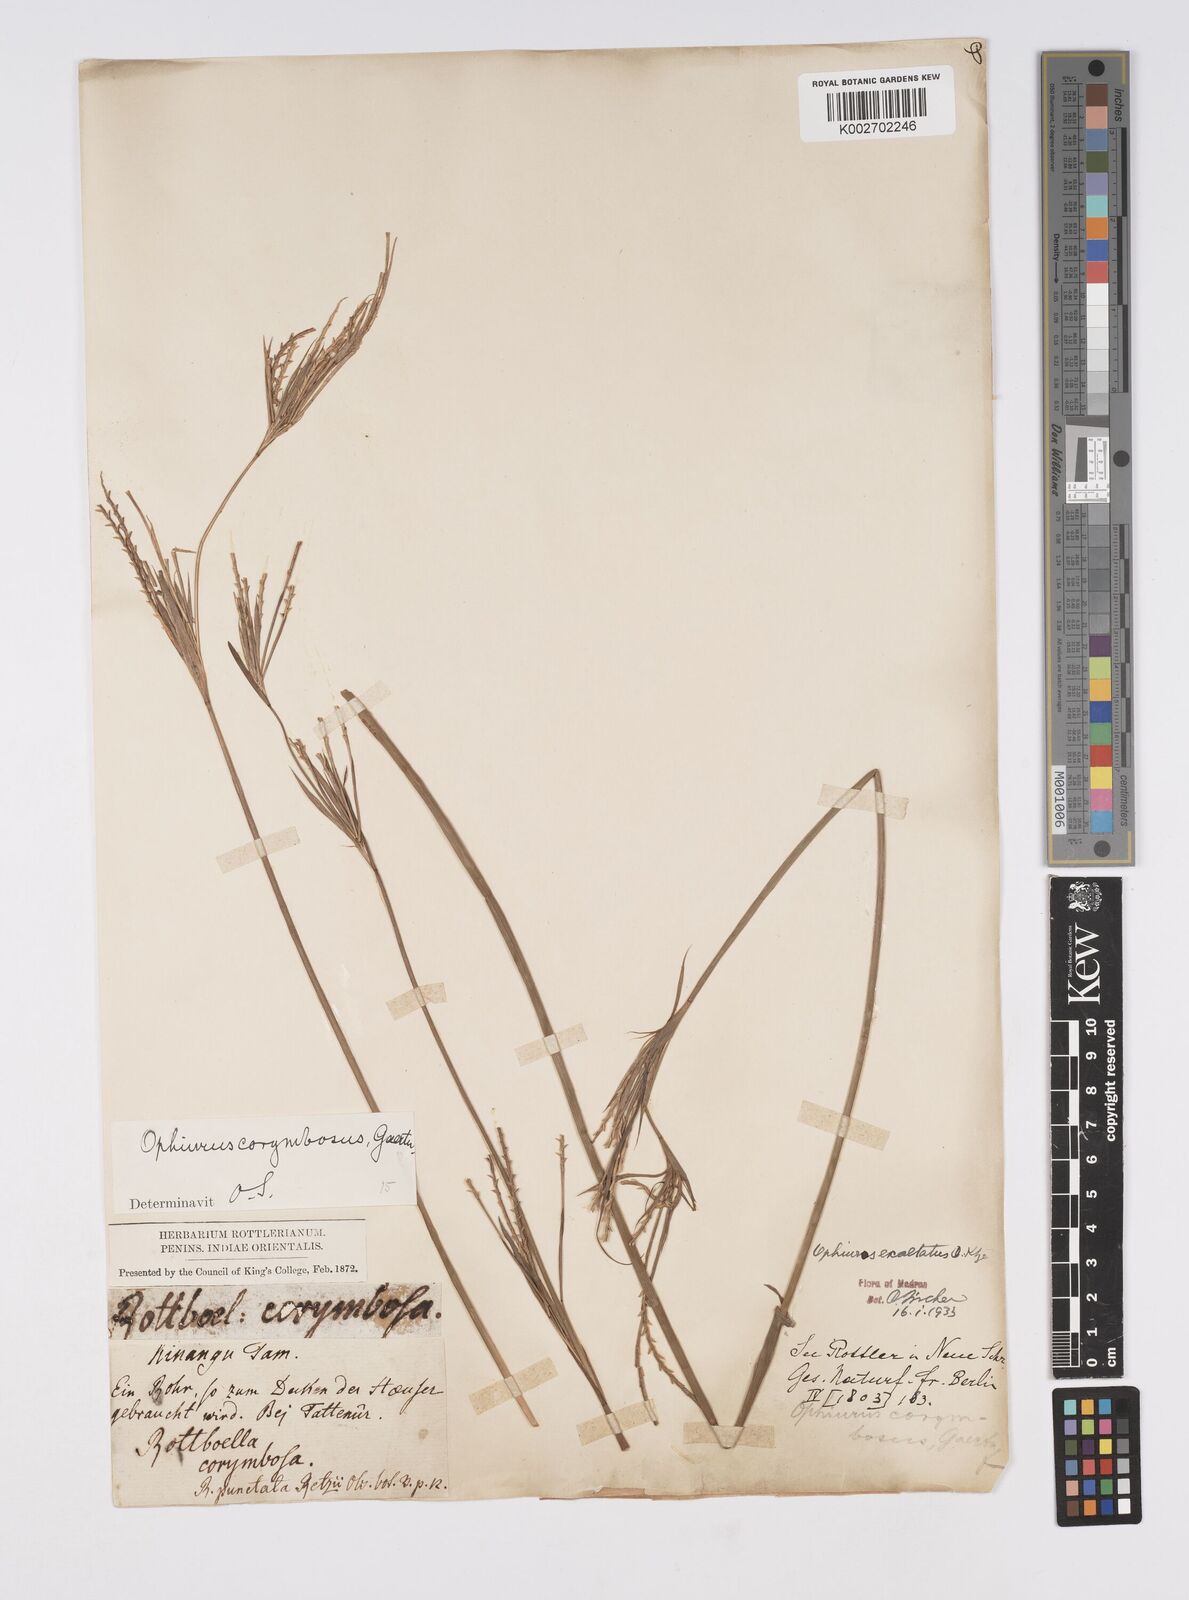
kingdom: Plantae
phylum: Tracheophyta
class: Liliopsida
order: Poales
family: Poaceae
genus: Ophiuros
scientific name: Ophiuros exaltatus
